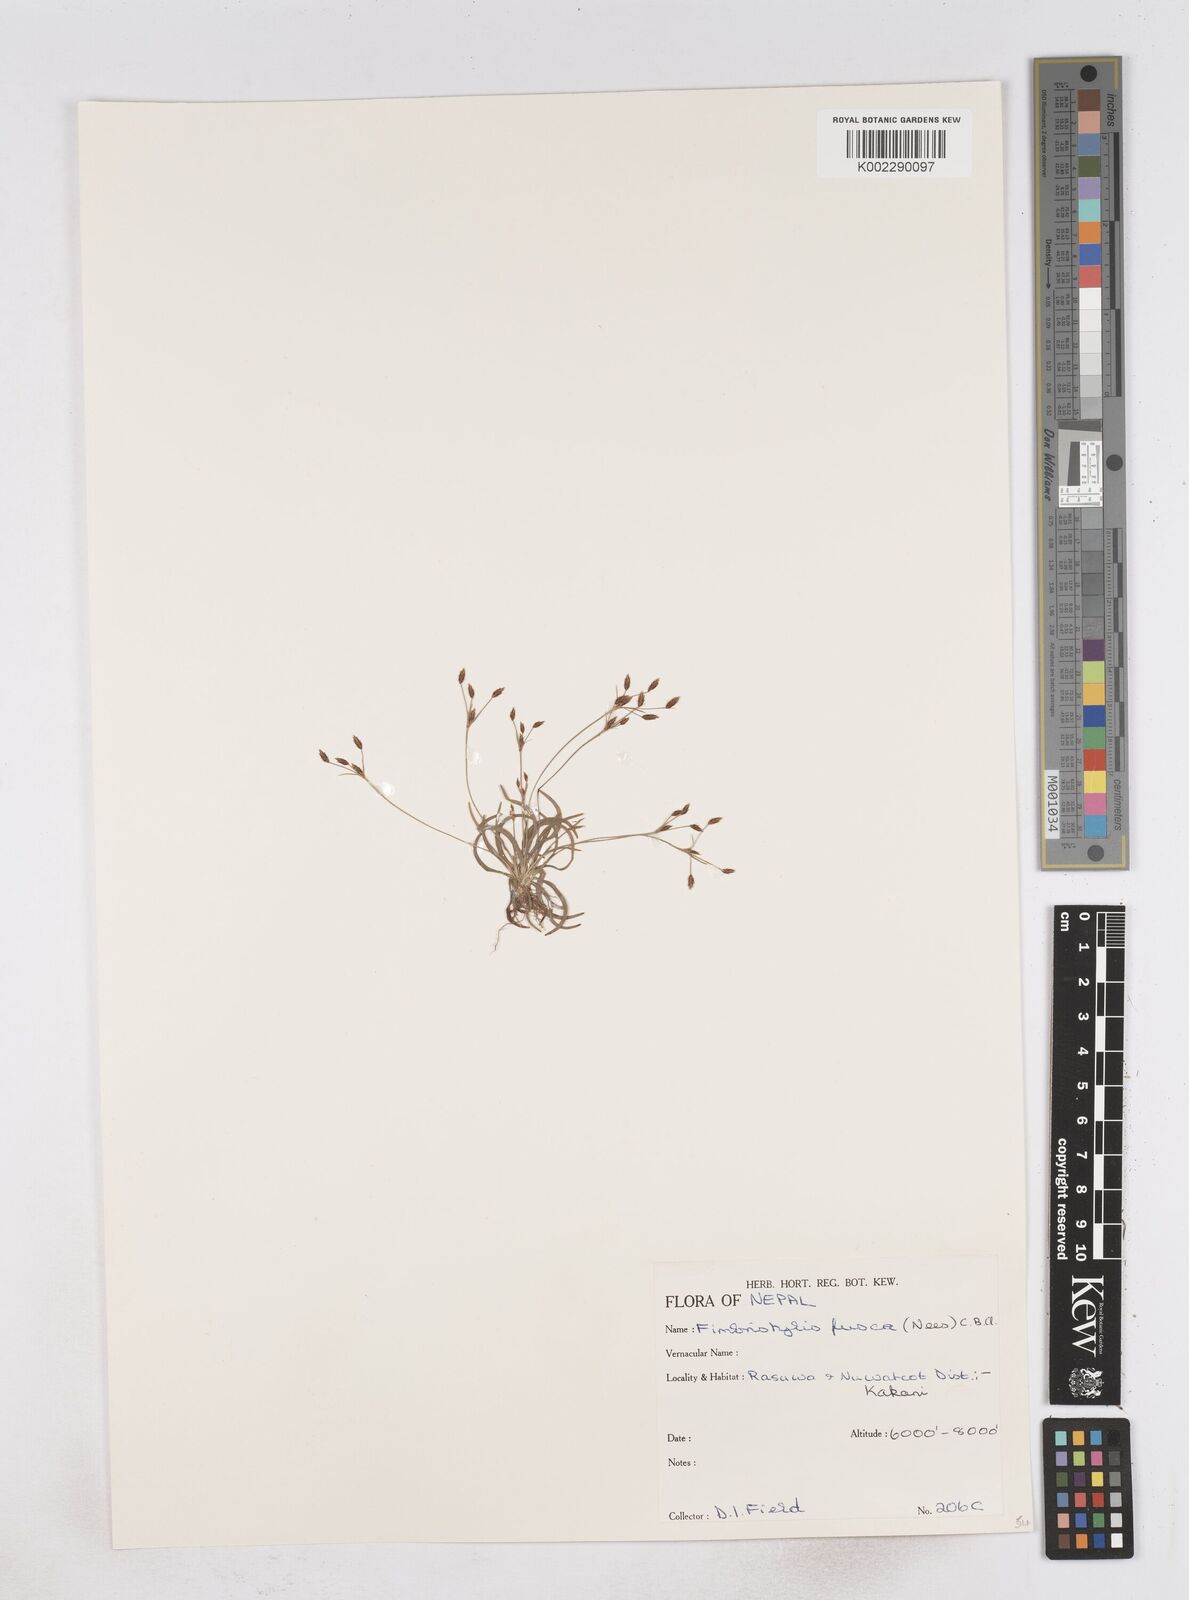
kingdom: Plantae
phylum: Tracheophyta
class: Liliopsida
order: Poales
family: Cyperaceae
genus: Fimbristylis
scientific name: Fimbristylis fusca
